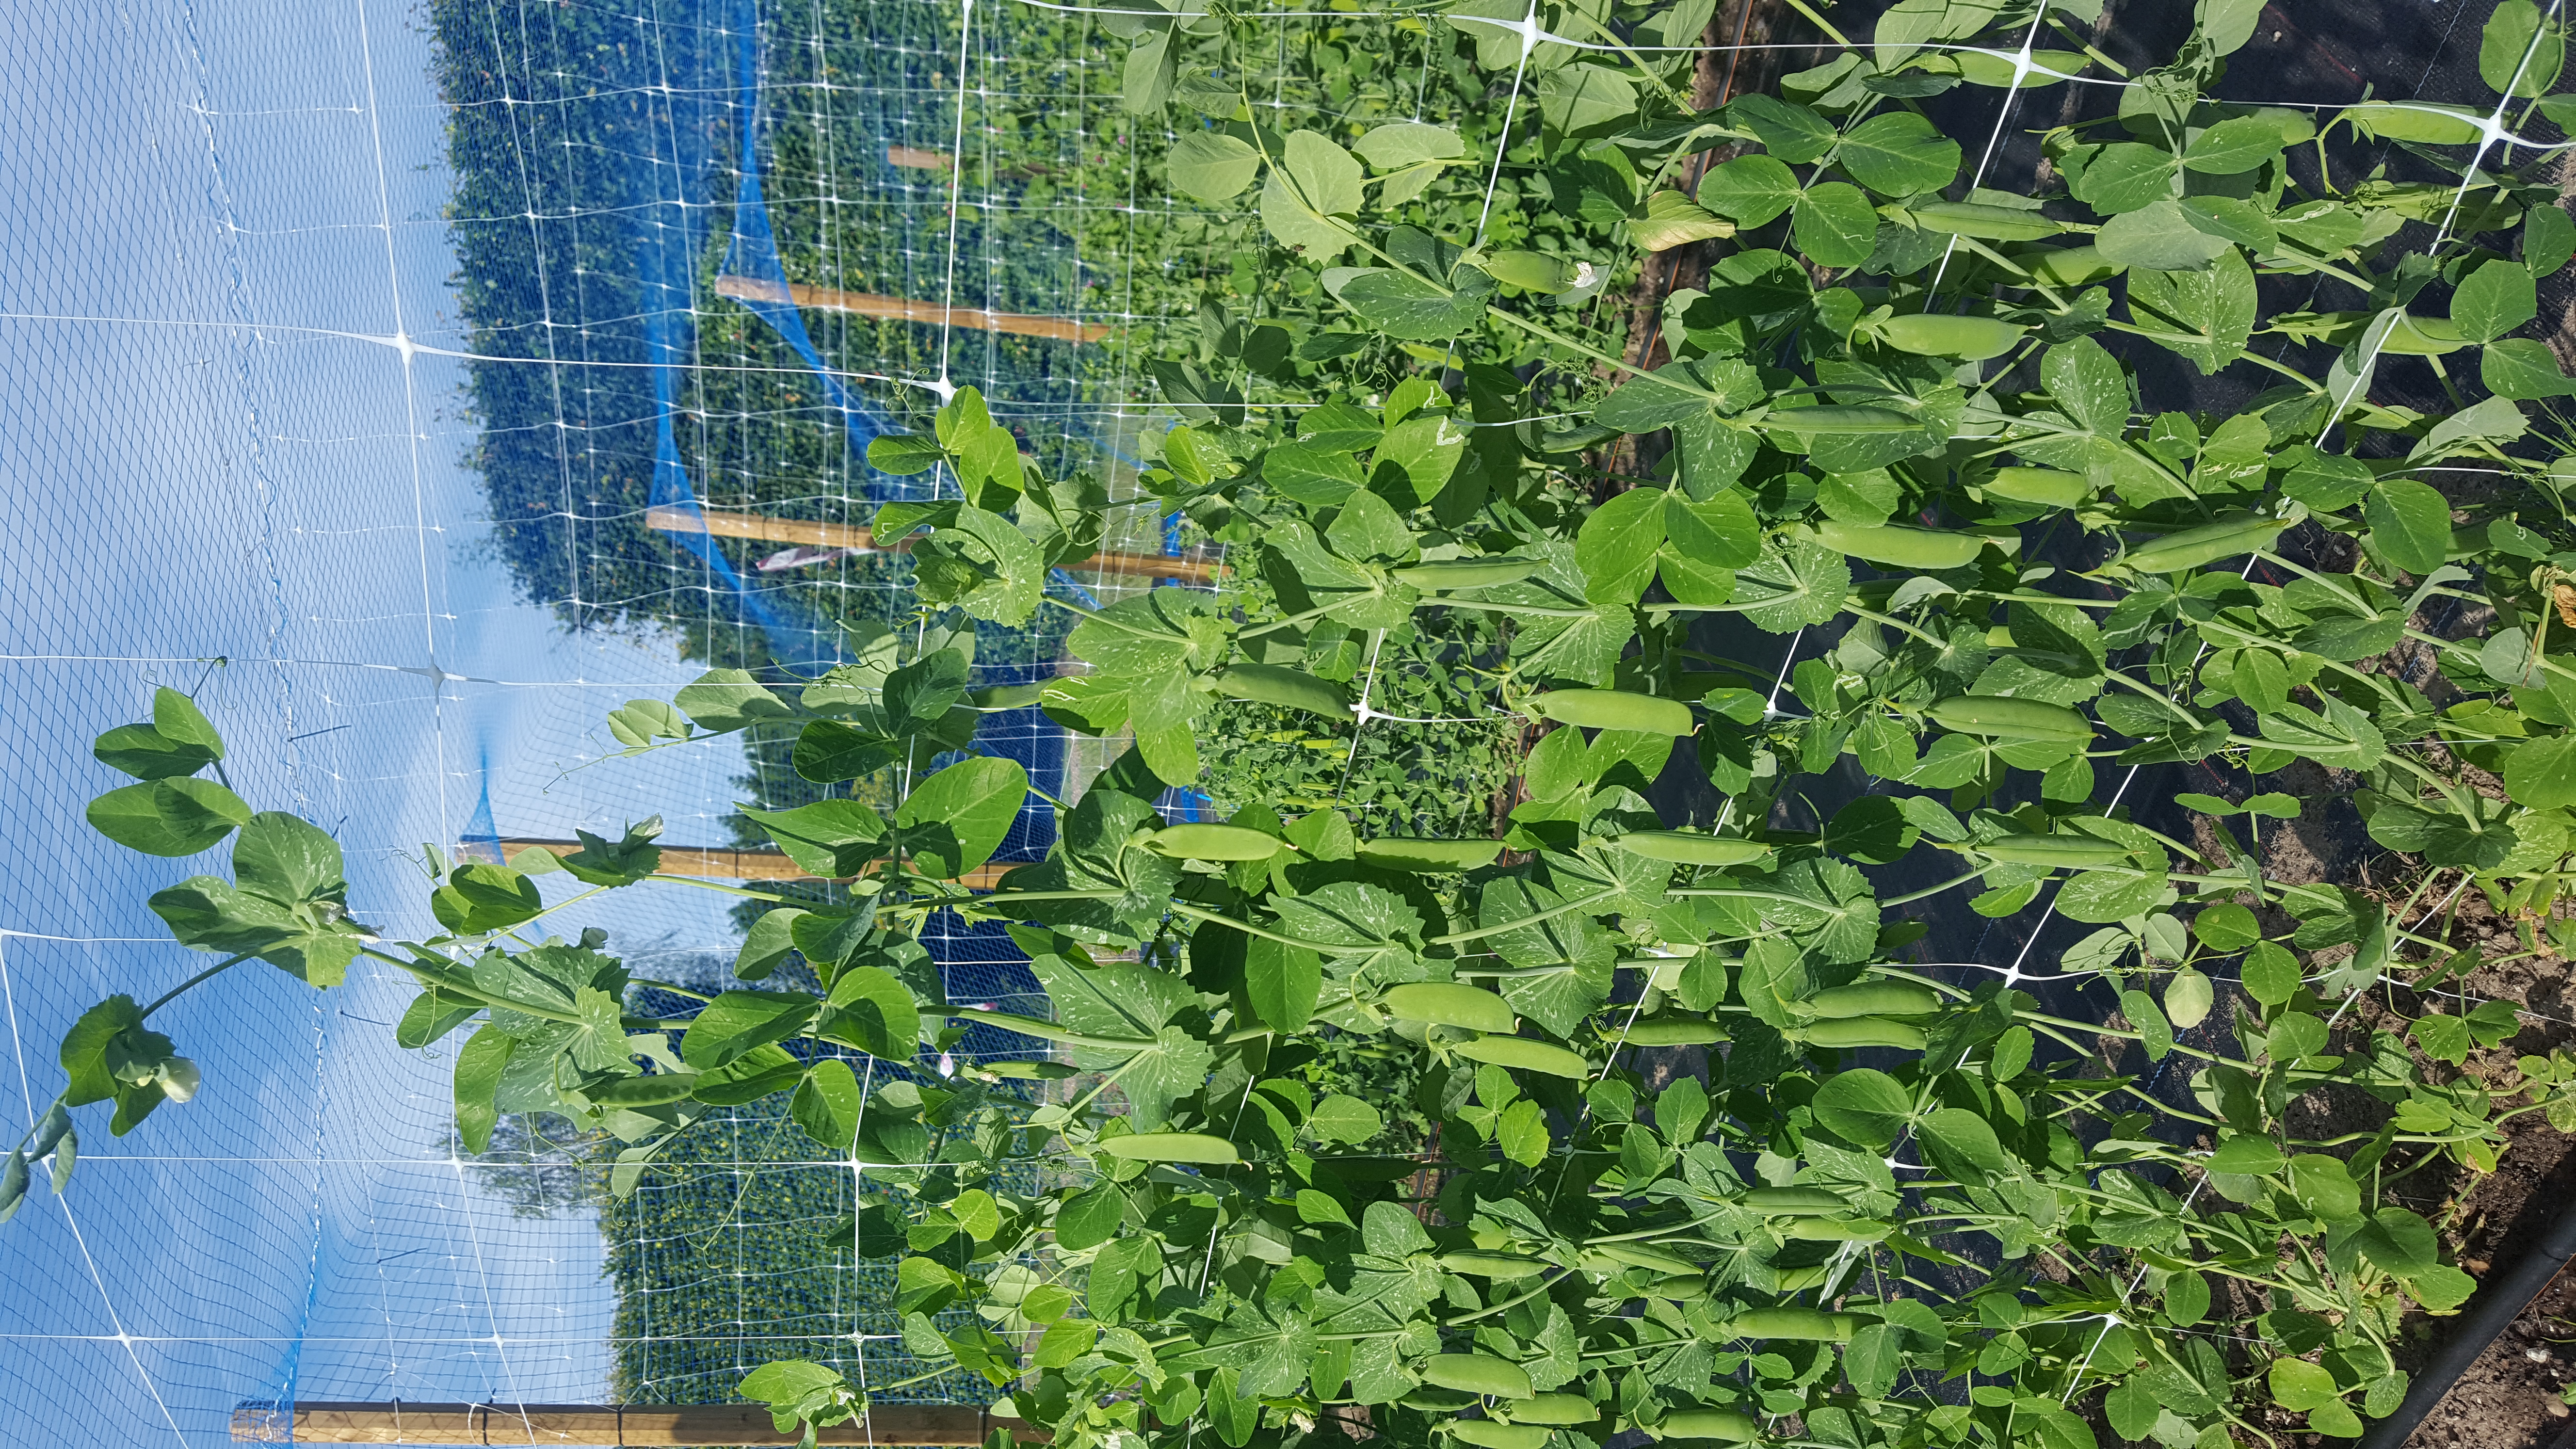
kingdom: Plantae
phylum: Tracheophyta
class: Magnoliopsida
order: Fabales
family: Fabaceae
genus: Lathyrus
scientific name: Lathyrus oleraceus
